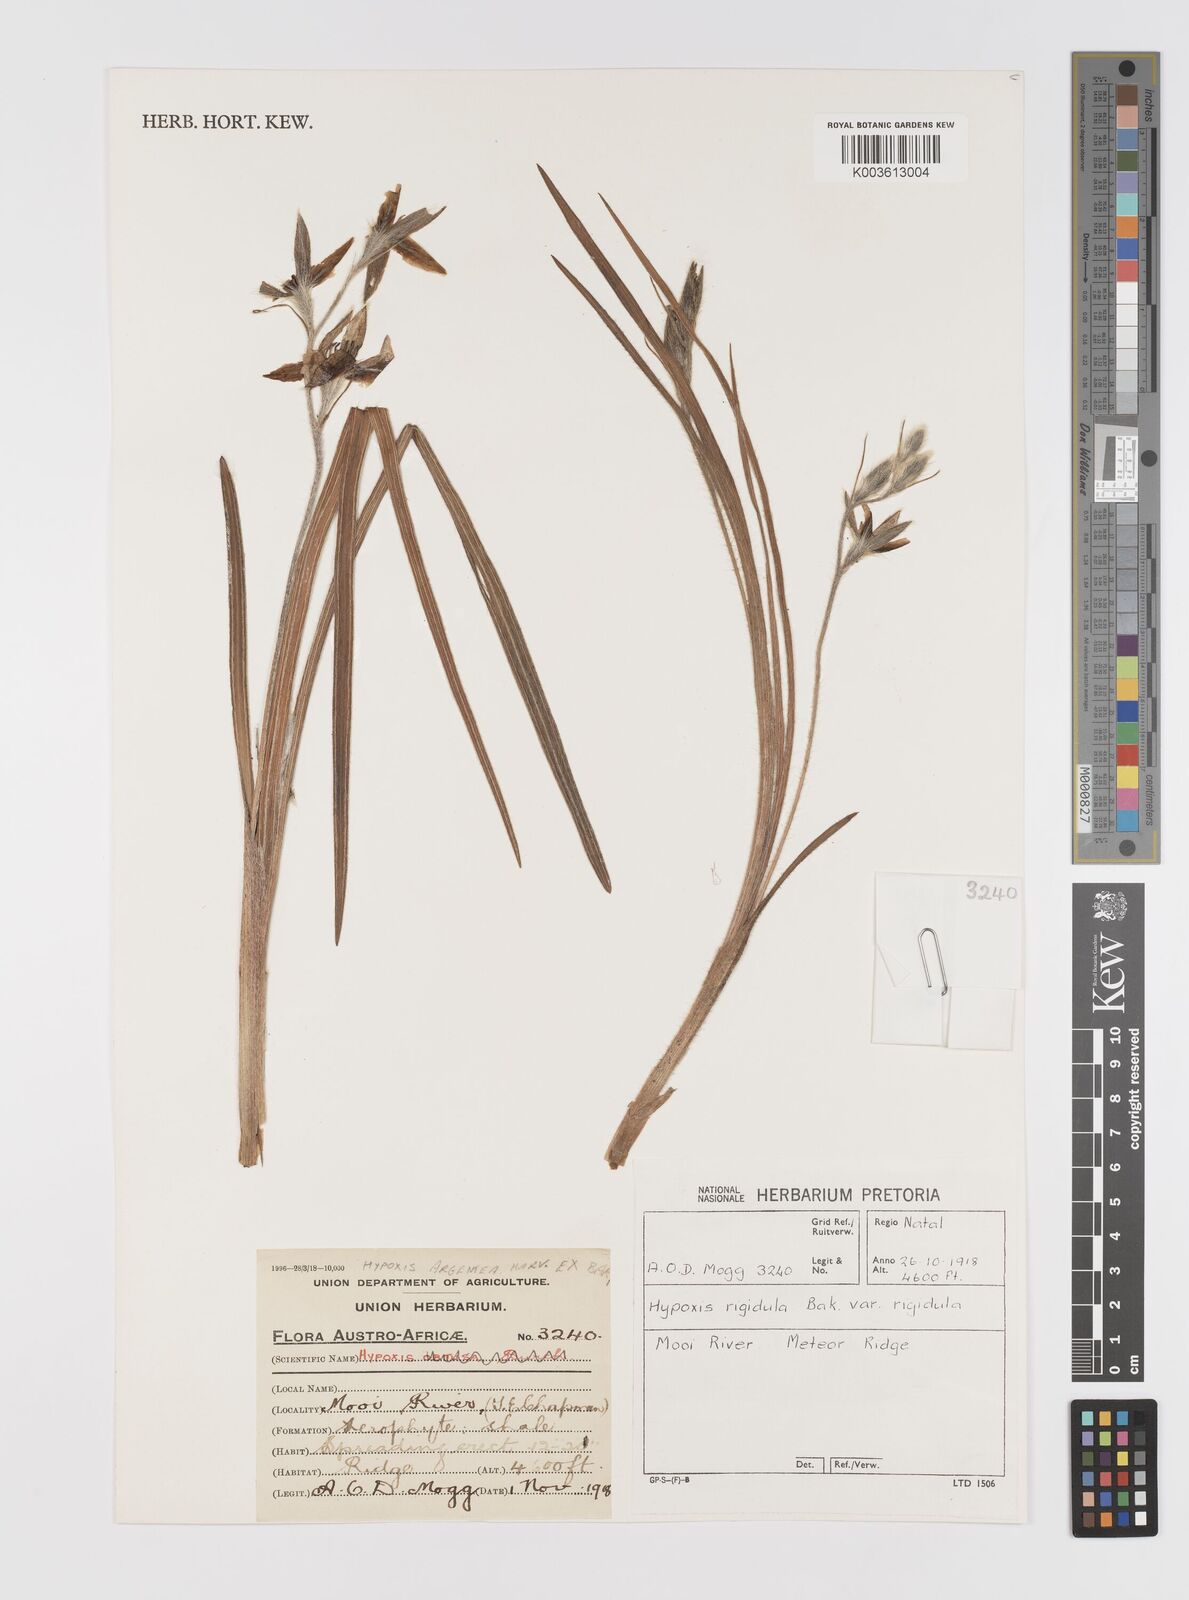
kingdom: Plantae
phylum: Tracheophyta
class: Liliopsida
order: Asparagales
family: Hypoxidaceae
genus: Hypoxis
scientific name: Hypoxis rigidula
